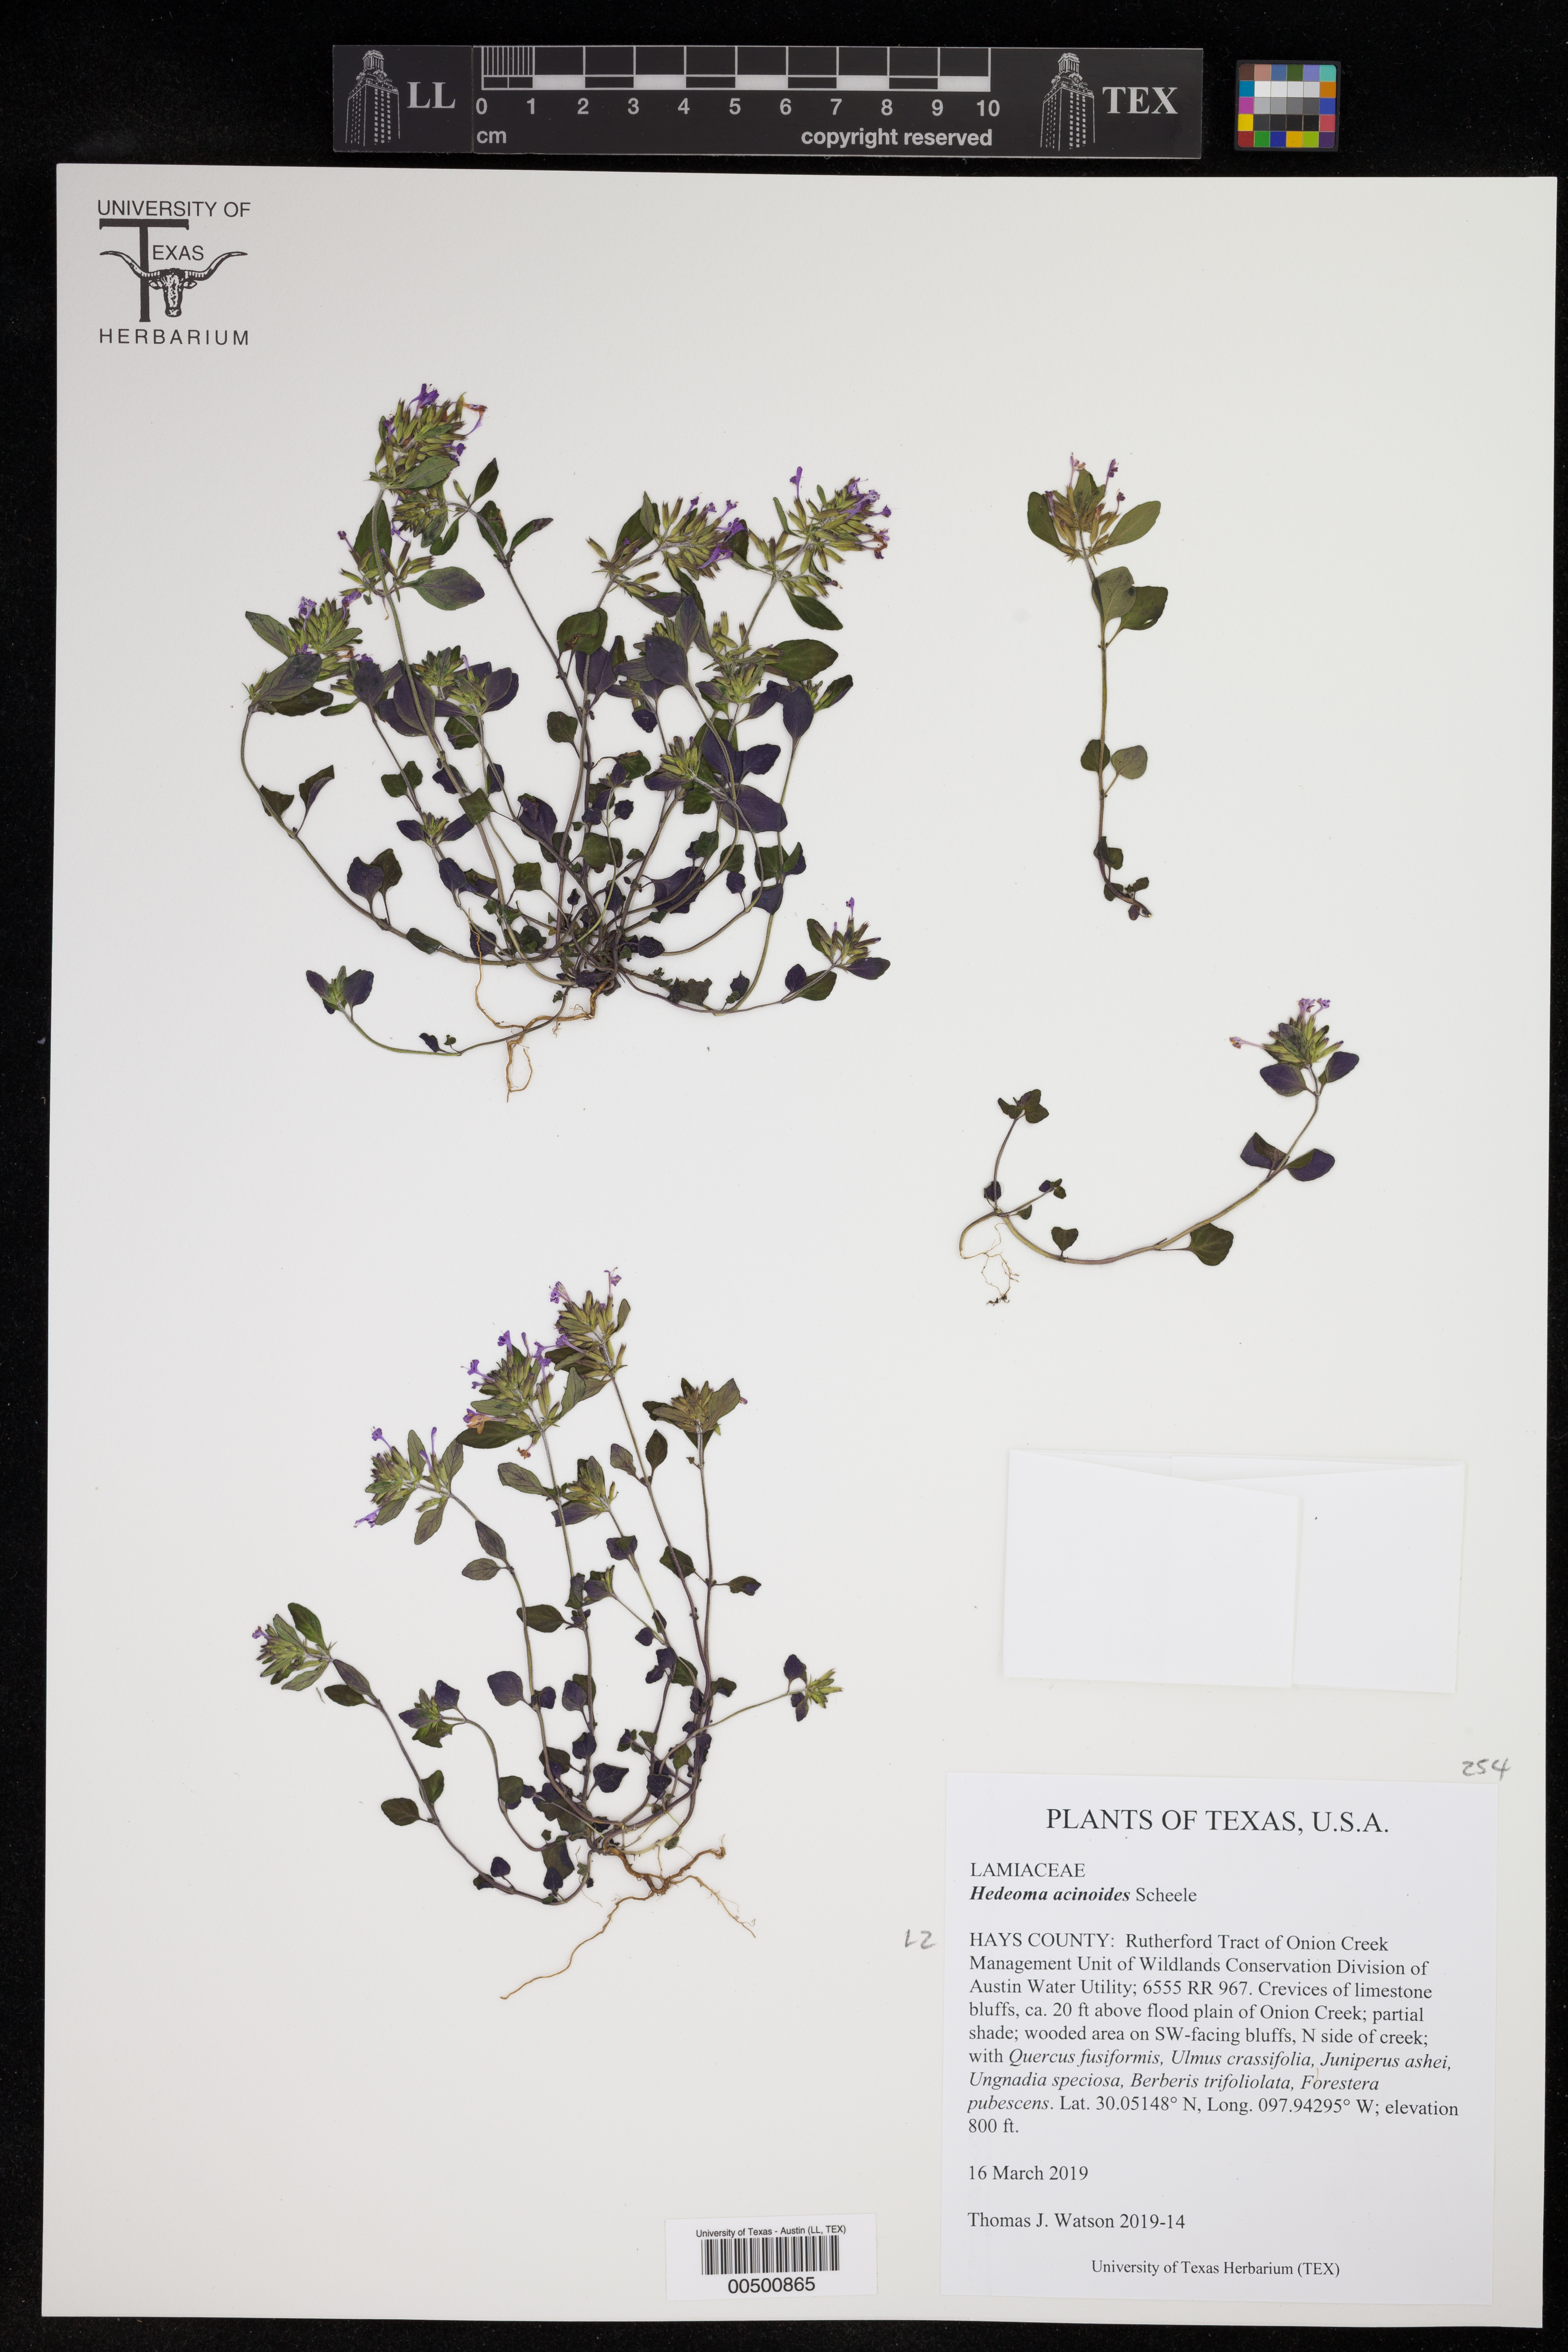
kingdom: Plantae
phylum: Tracheophyta
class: Magnoliopsida
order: Lamiales
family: Lamiaceae
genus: Hedeoma
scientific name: Hedeoma acinoides
